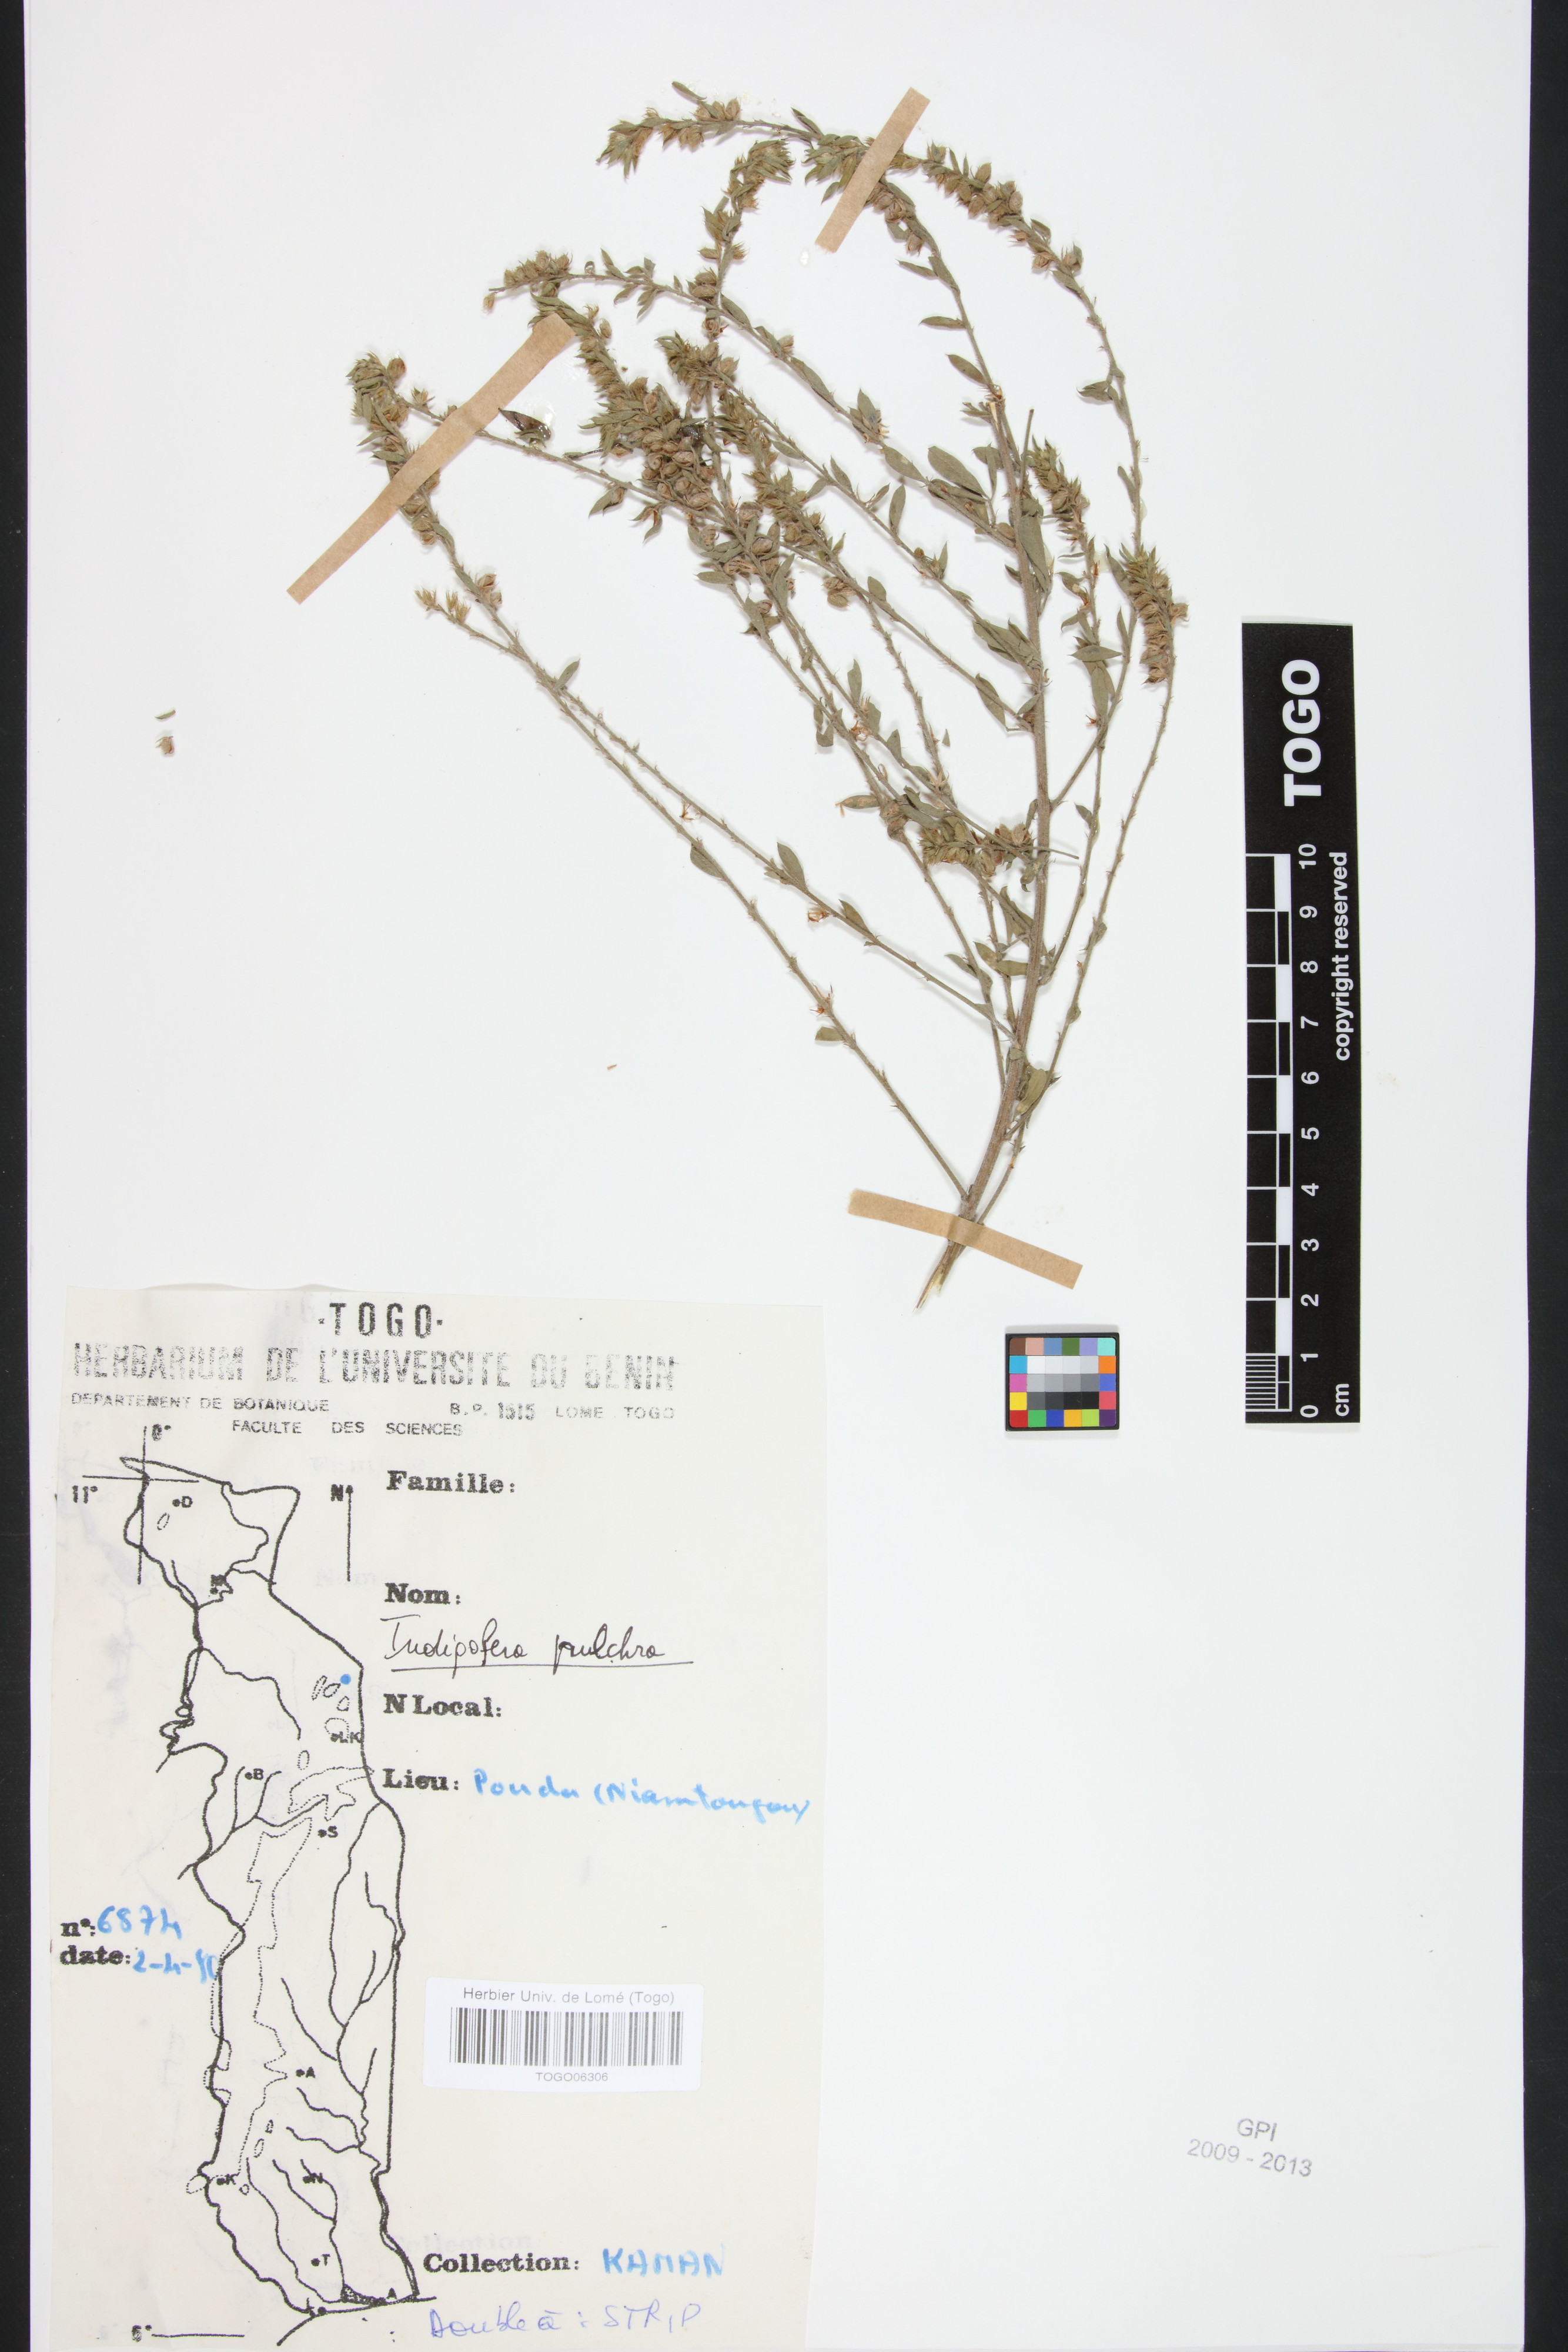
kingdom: Plantae
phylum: Tracheophyta
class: Magnoliopsida
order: Fabales
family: Fabaceae
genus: Indigofera
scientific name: Indigofera pulchra
